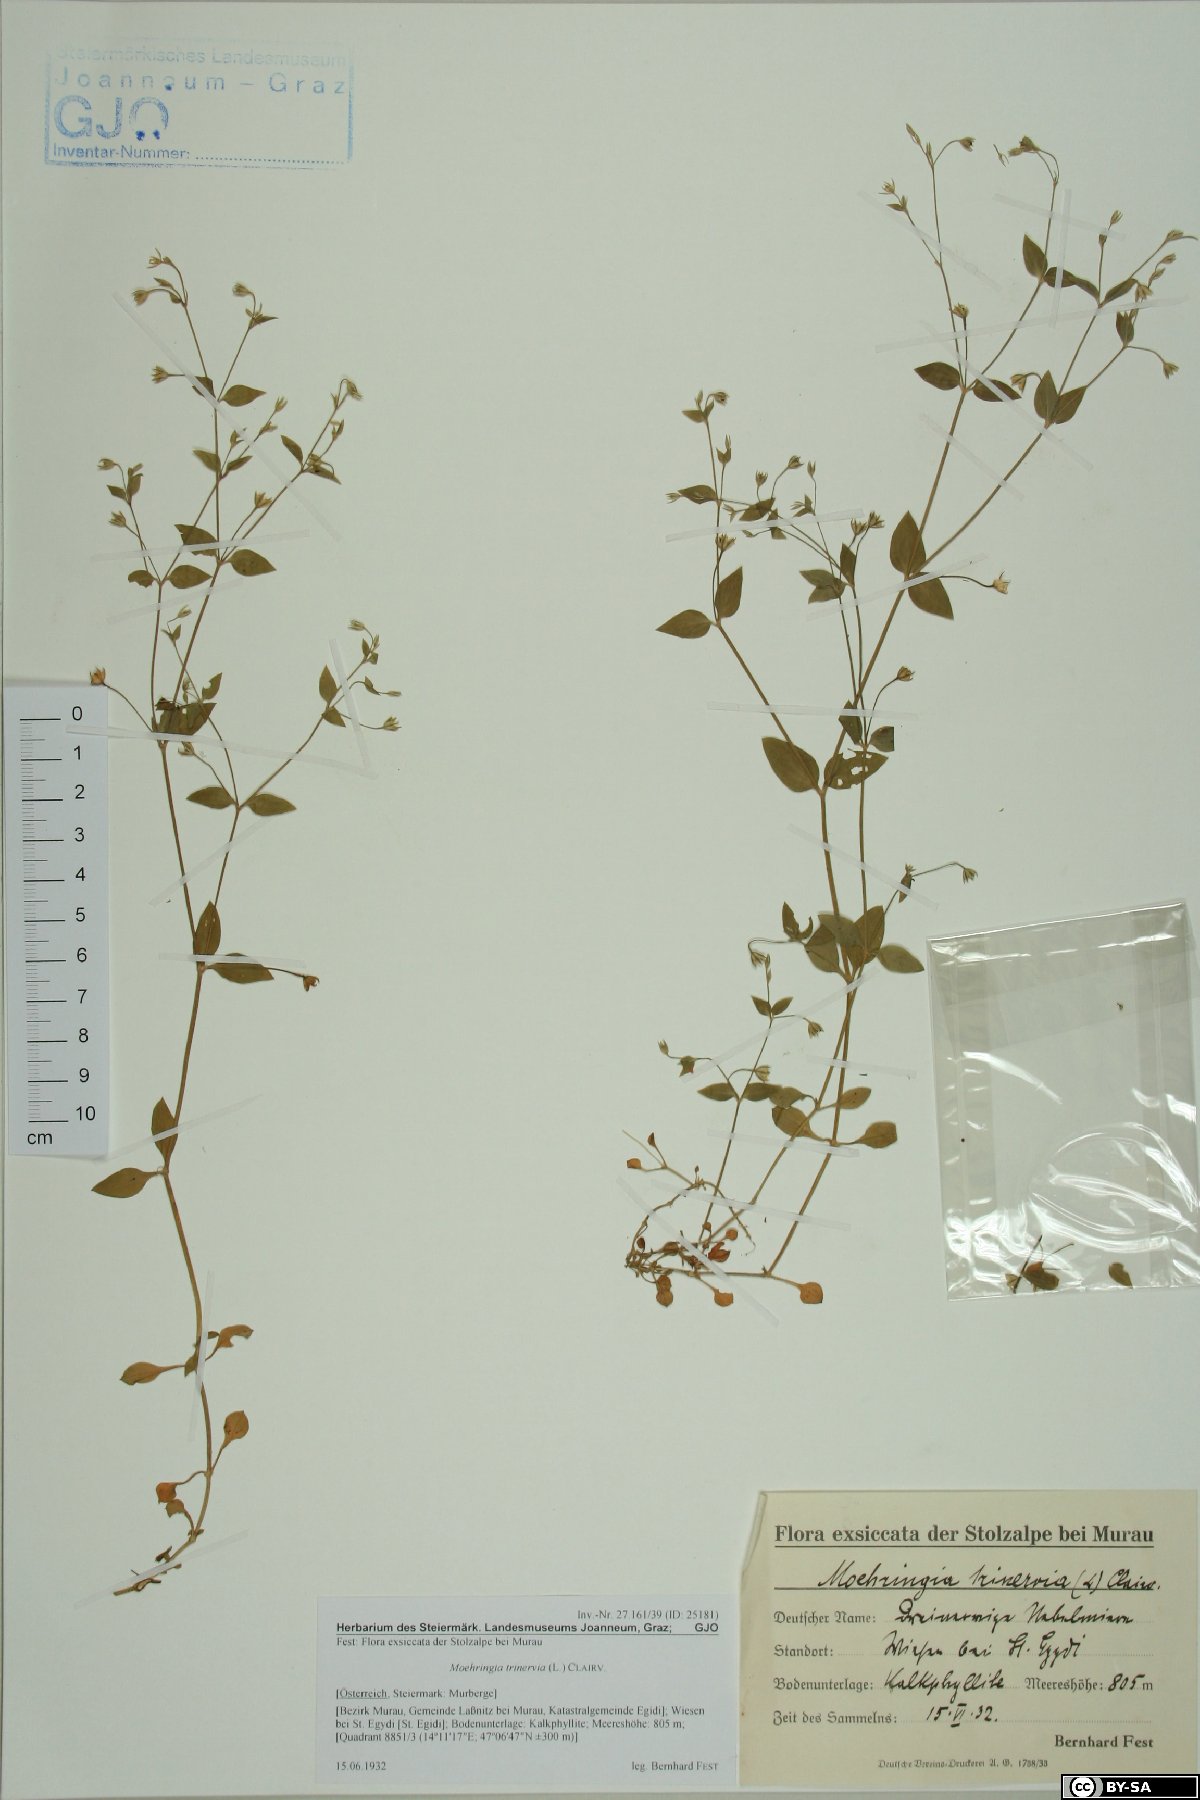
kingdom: Plantae
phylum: Tracheophyta
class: Magnoliopsida
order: Caryophyllales
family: Caryophyllaceae
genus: Moehringia
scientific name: Moehringia trinervia
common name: Three-nerved sandwort
